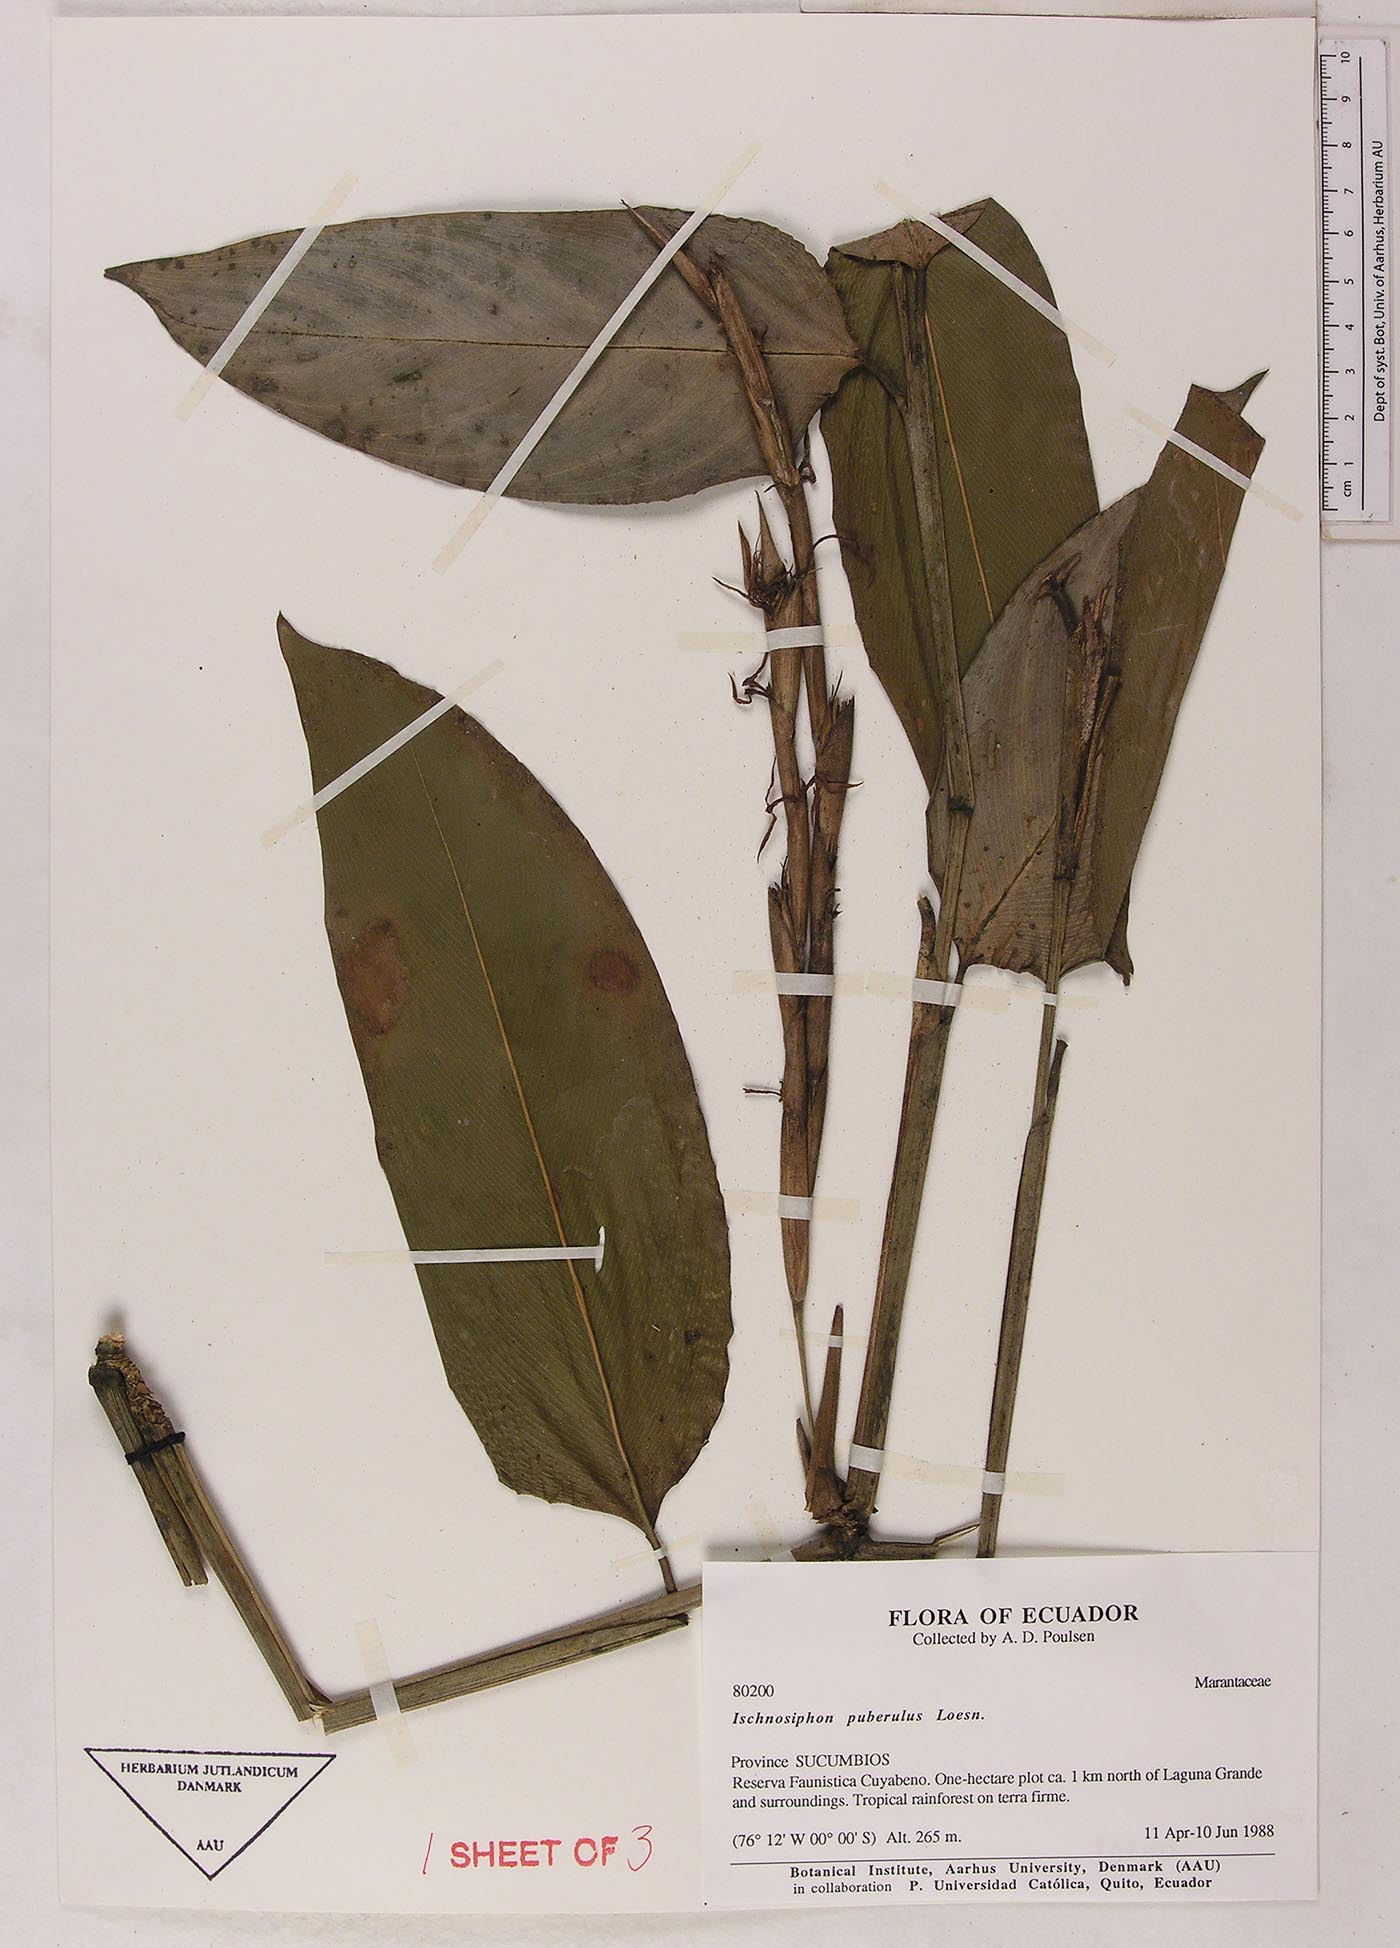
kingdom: Plantae
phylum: Tracheophyta
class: Liliopsida
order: Zingiberales
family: Marantaceae
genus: Ischnosiphon
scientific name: Ischnosiphon puberulus
